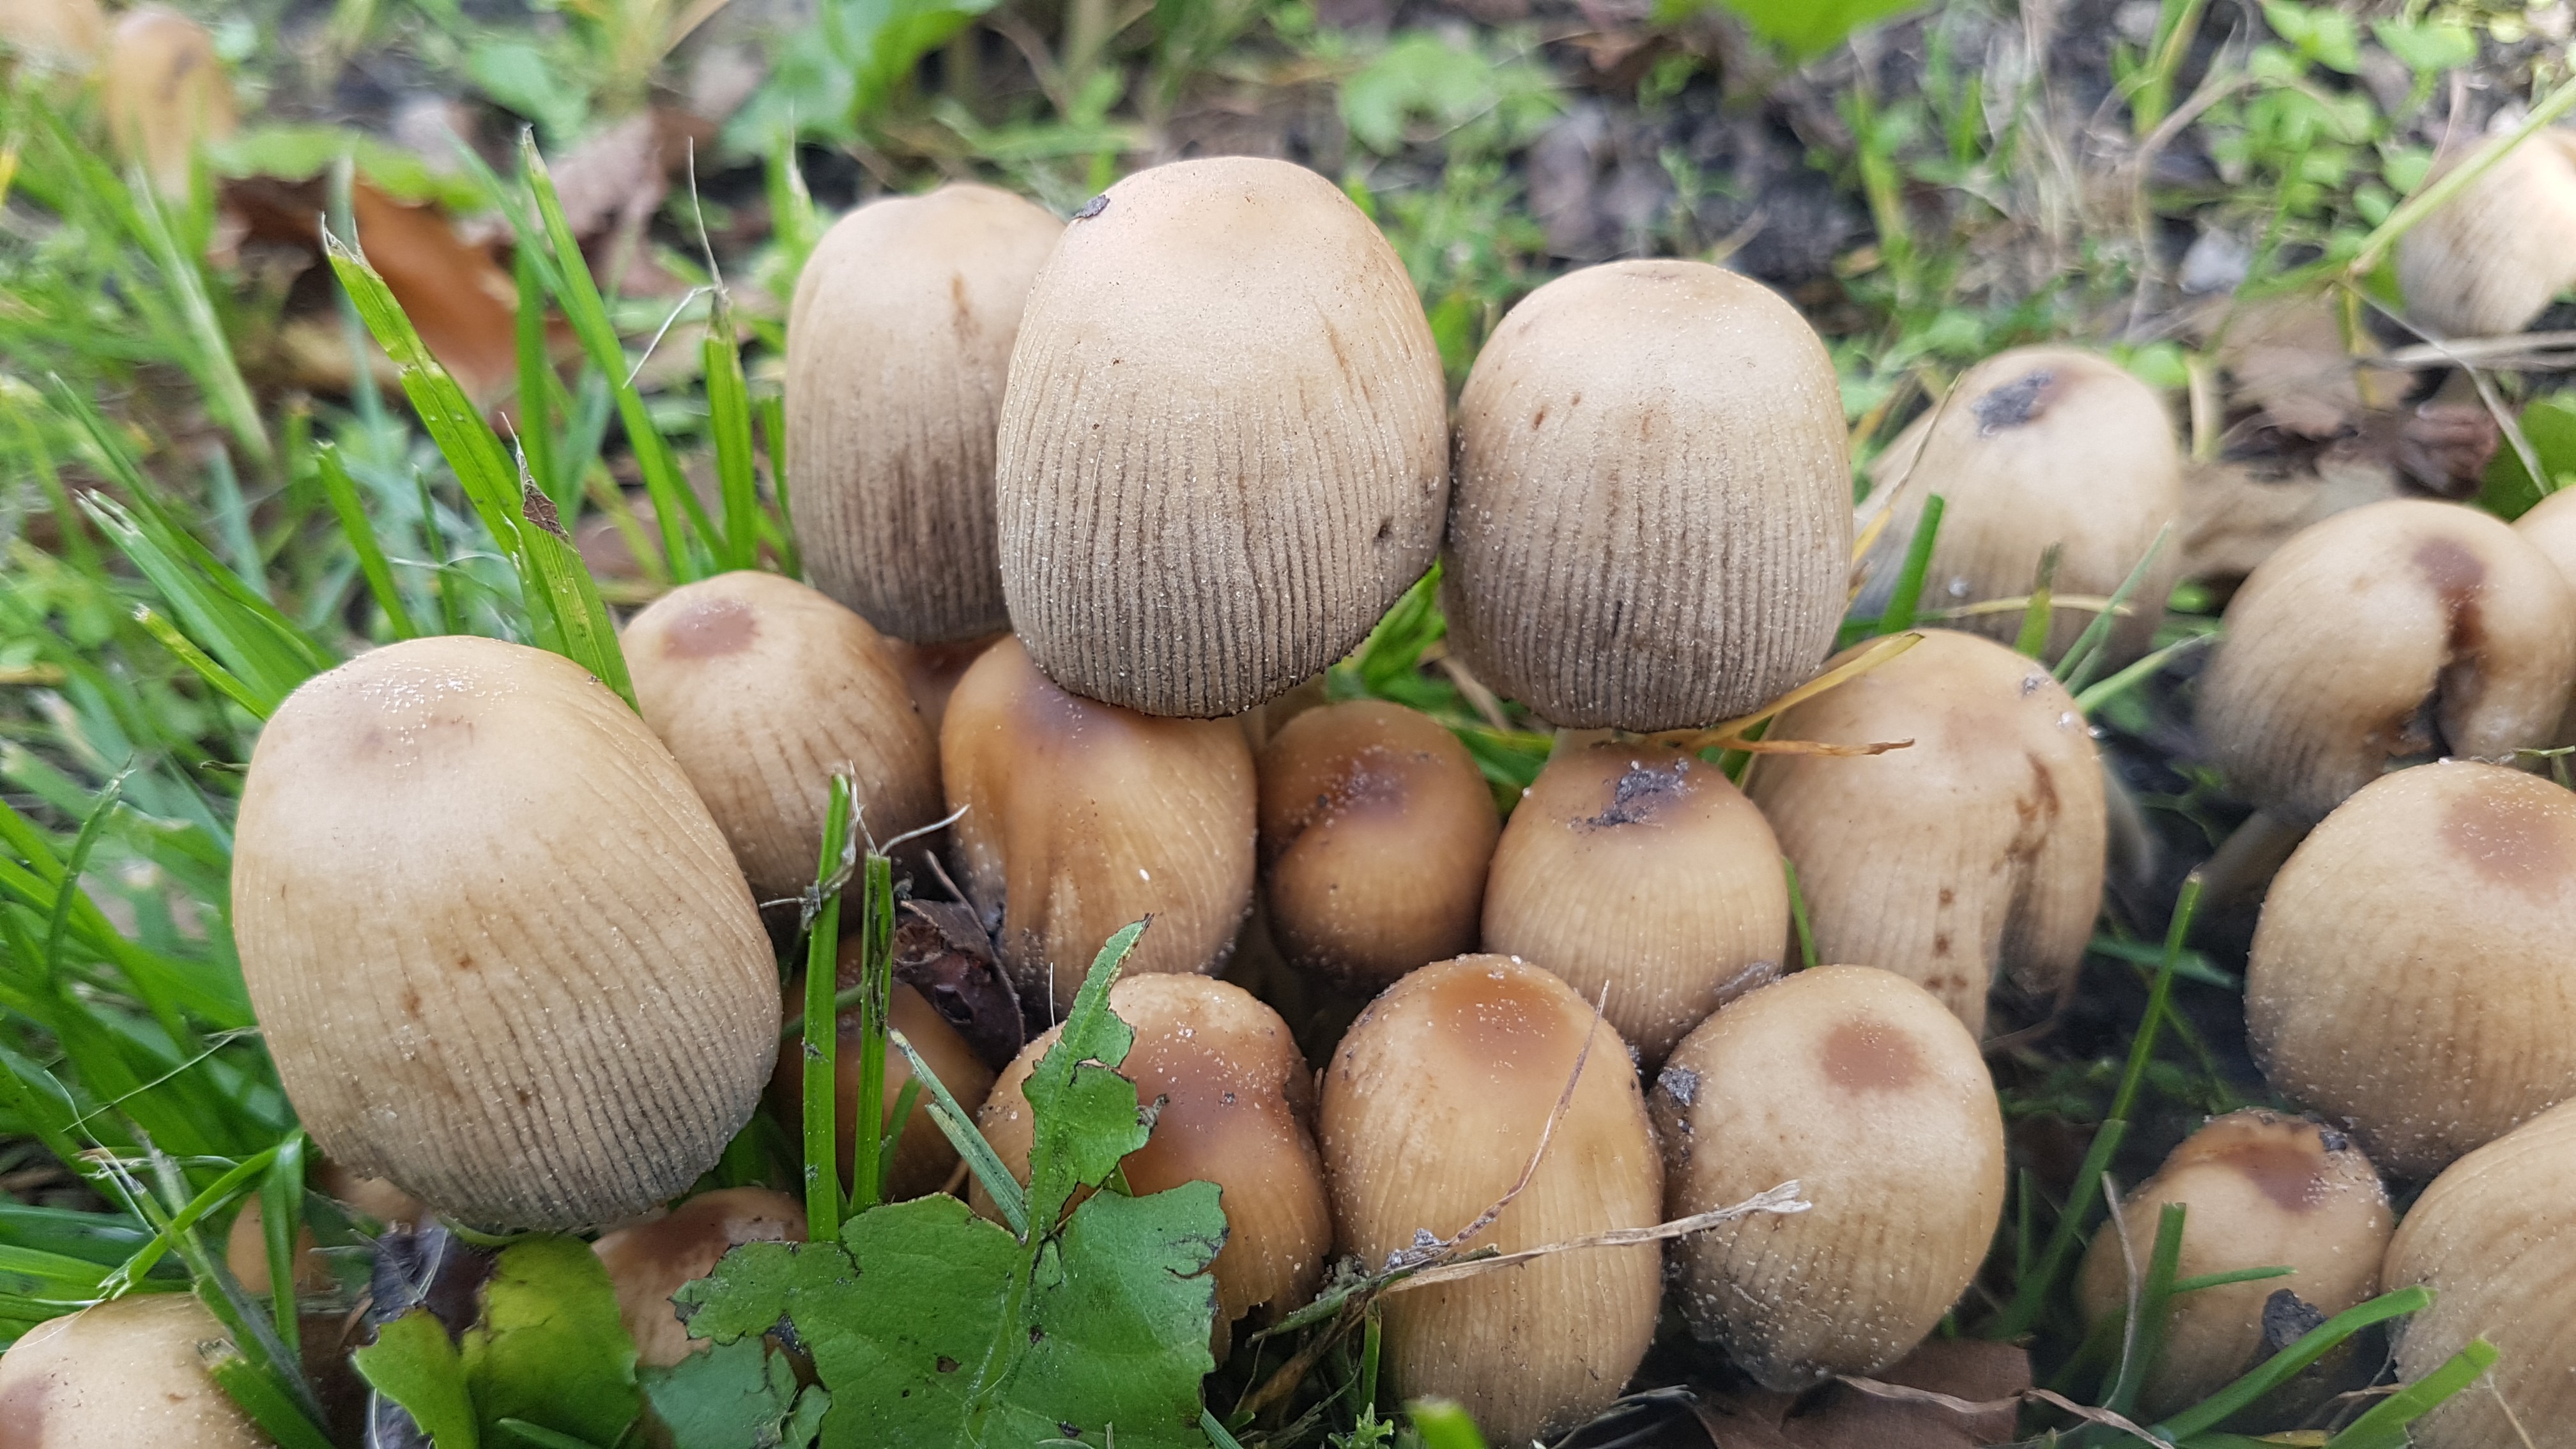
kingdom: Fungi
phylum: Basidiomycota
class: Agaricomycetes
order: Agaricales
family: Psathyrellaceae
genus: Coprinellus
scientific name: Coprinellus micaceus
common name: glimmer-blækhat
